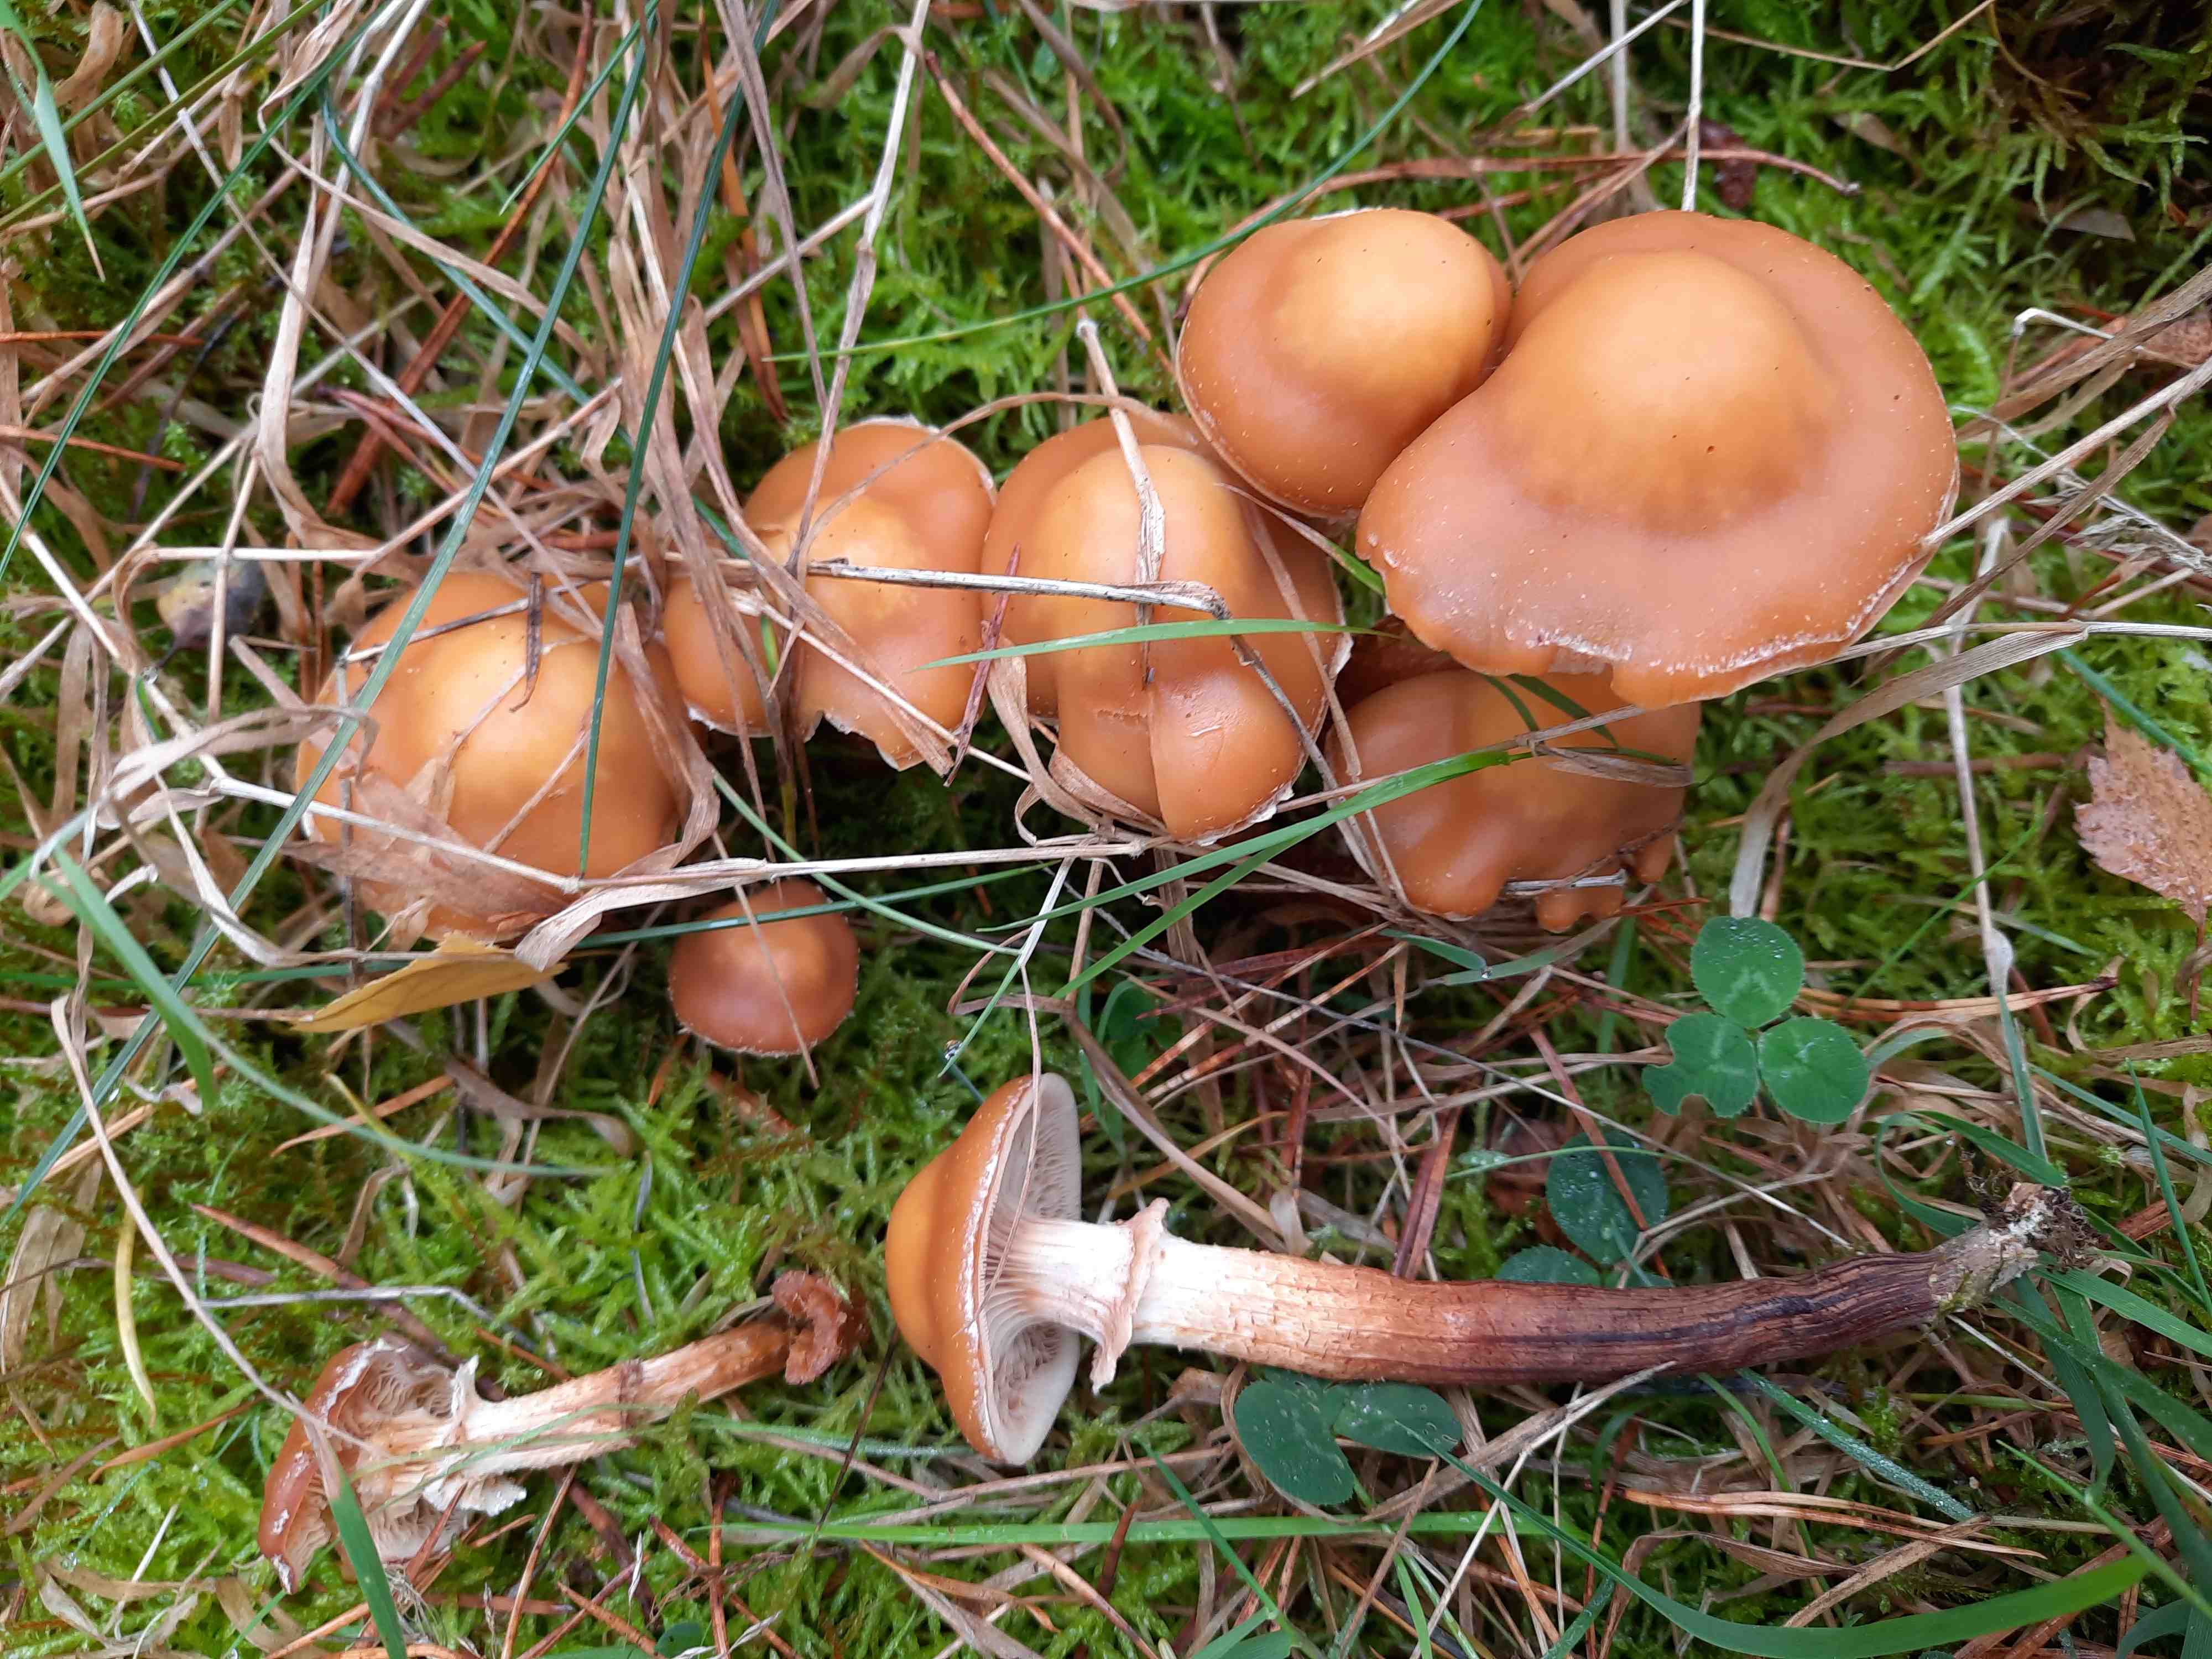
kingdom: Fungi
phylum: Basidiomycota
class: Agaricomycetes
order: Agaricales
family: Strophariaceae
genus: Kuehneromyces
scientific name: Kuehneromyces mutabilis
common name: foranderlig skælhat
